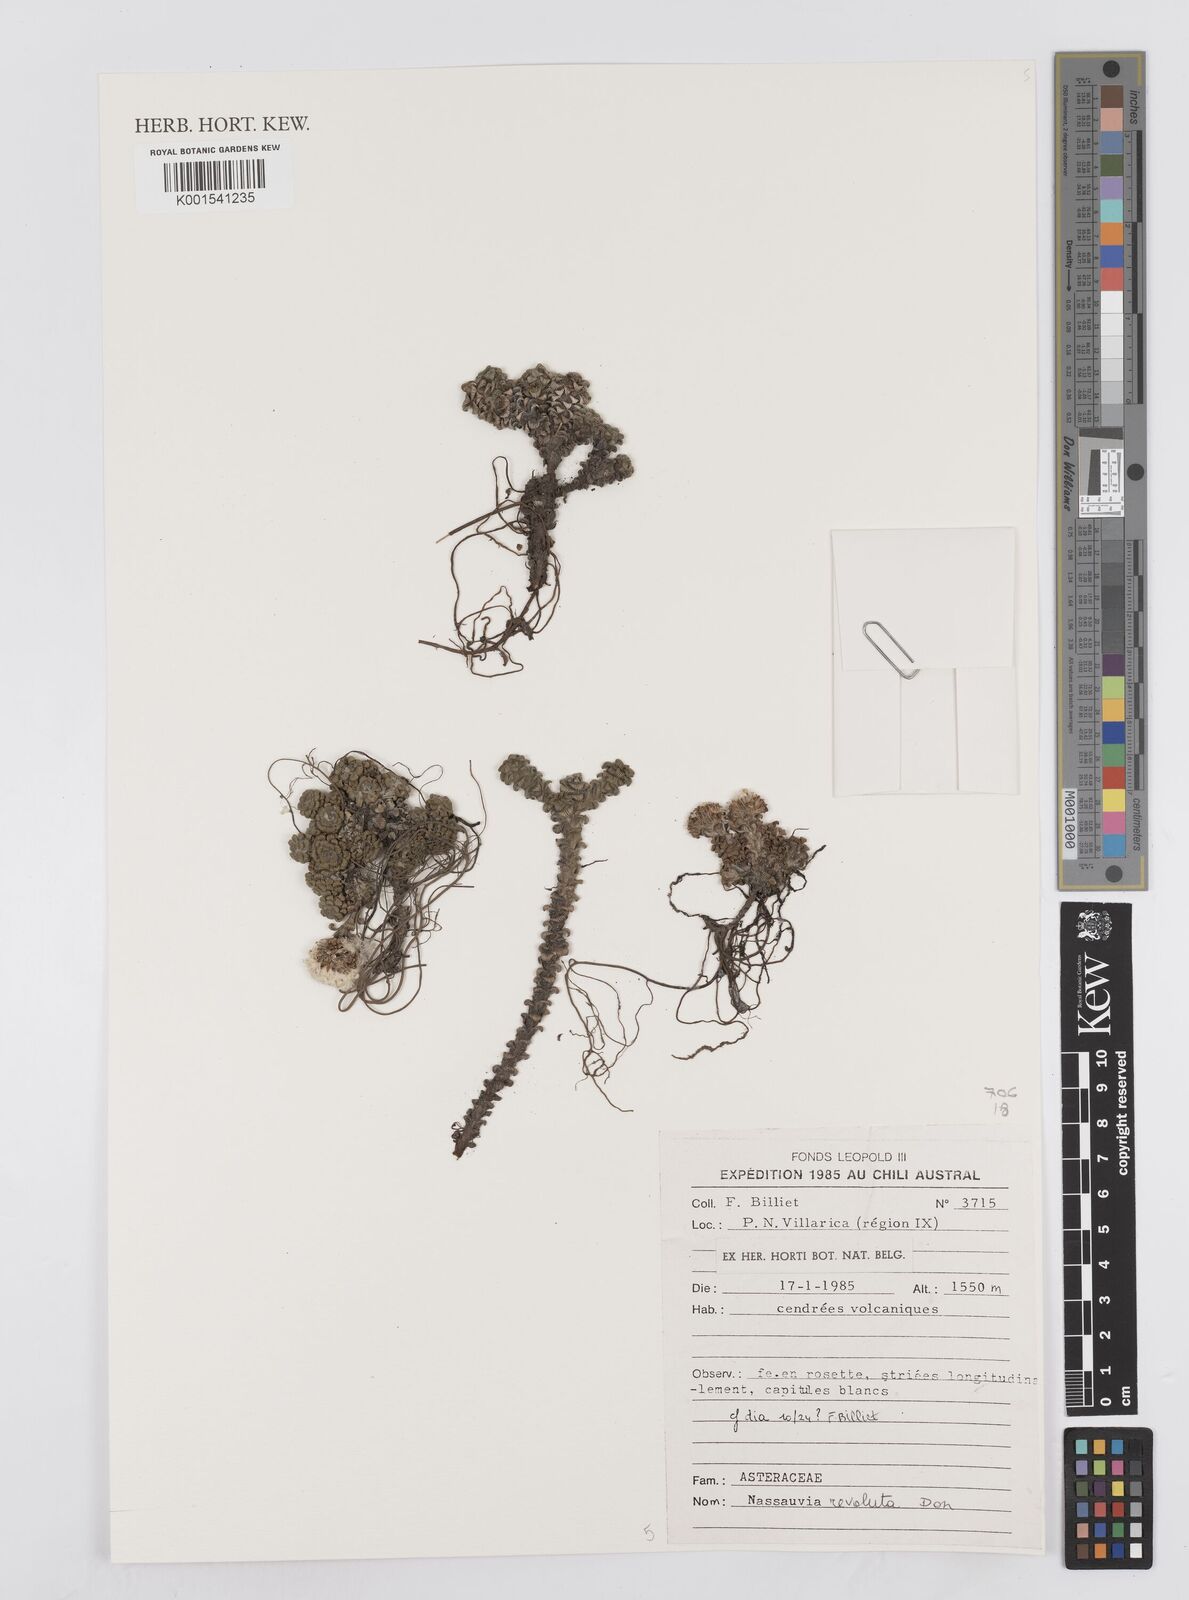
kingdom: Plantae
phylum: Tracheophyta
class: Magnoliopsida
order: Asterales
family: Asteraceae
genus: Nassauvia
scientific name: Nassauvia revoluta
